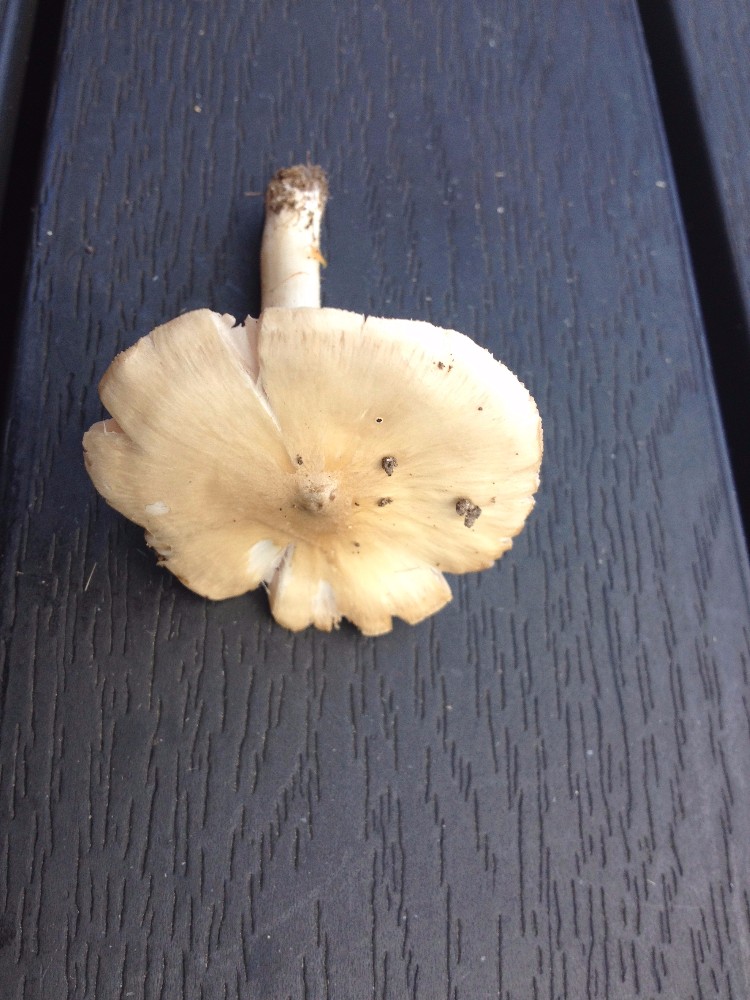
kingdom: Fungi
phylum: Basidiomycota
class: Agaricomycetes
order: Agaricales
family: Entolomataceae
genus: Entoloma
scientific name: Entoloma prunuloides
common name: mel-rødblad
